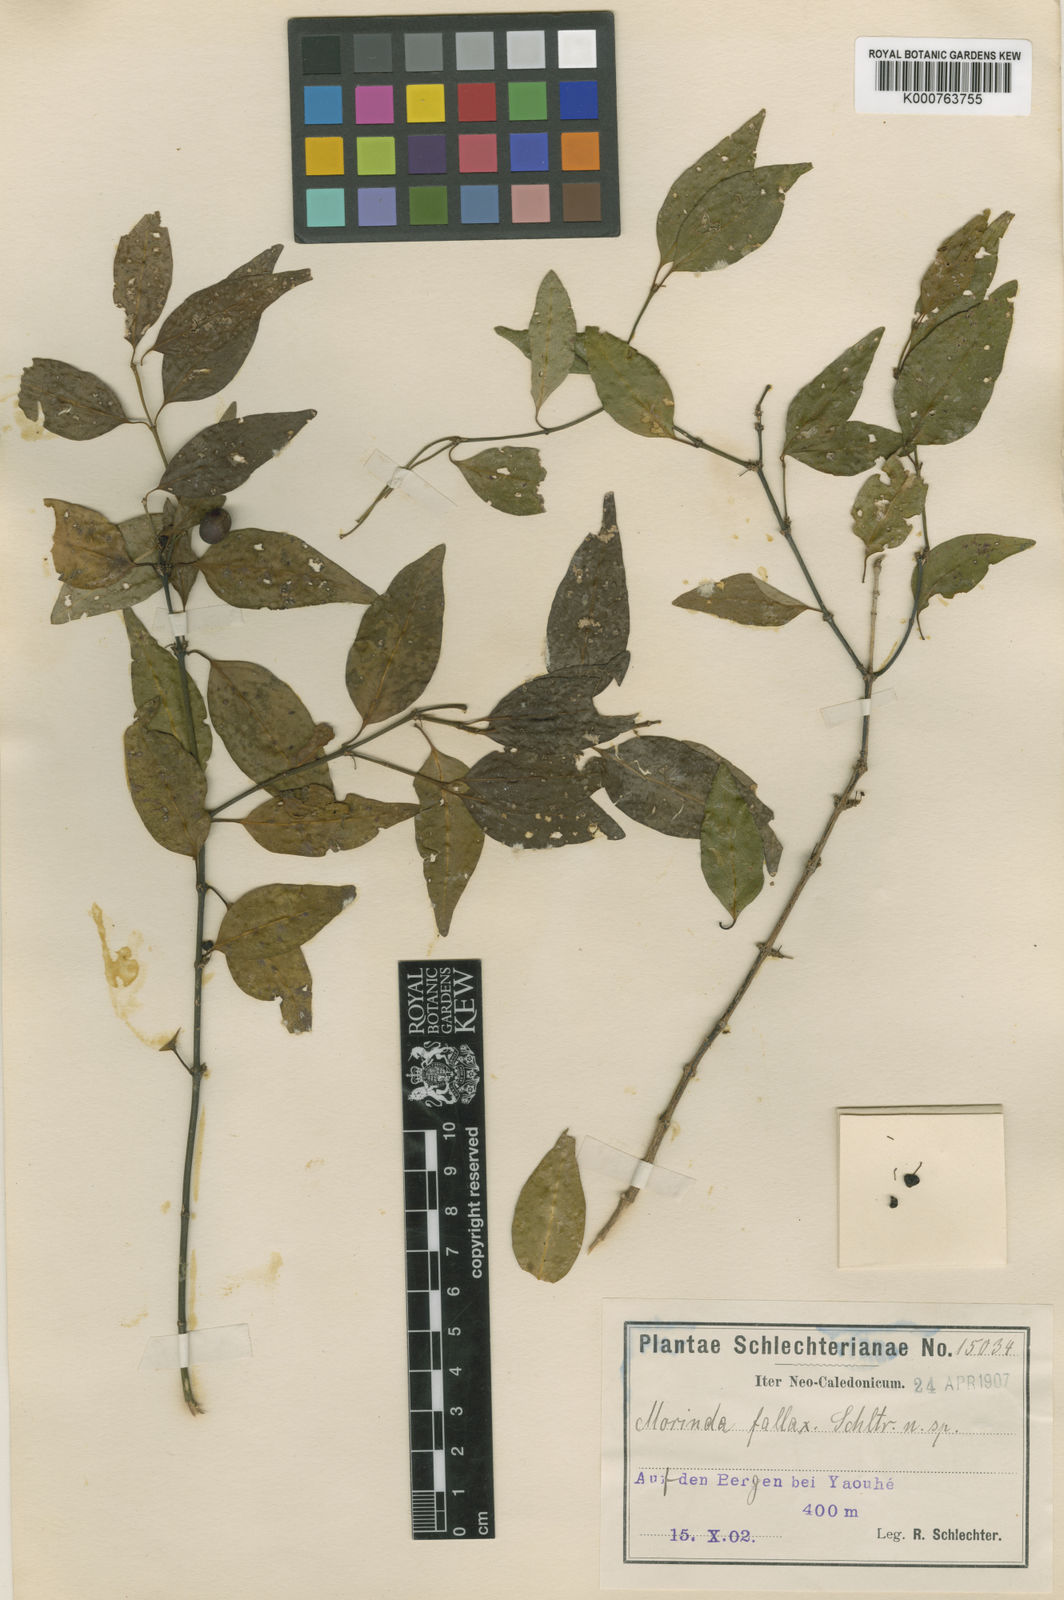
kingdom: Plantae
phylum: Tracheophyta
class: Magnoliopsida
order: Gentianales
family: Rubiaceae
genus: Gynochthodes
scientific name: Gynochthodes phyllireoides
